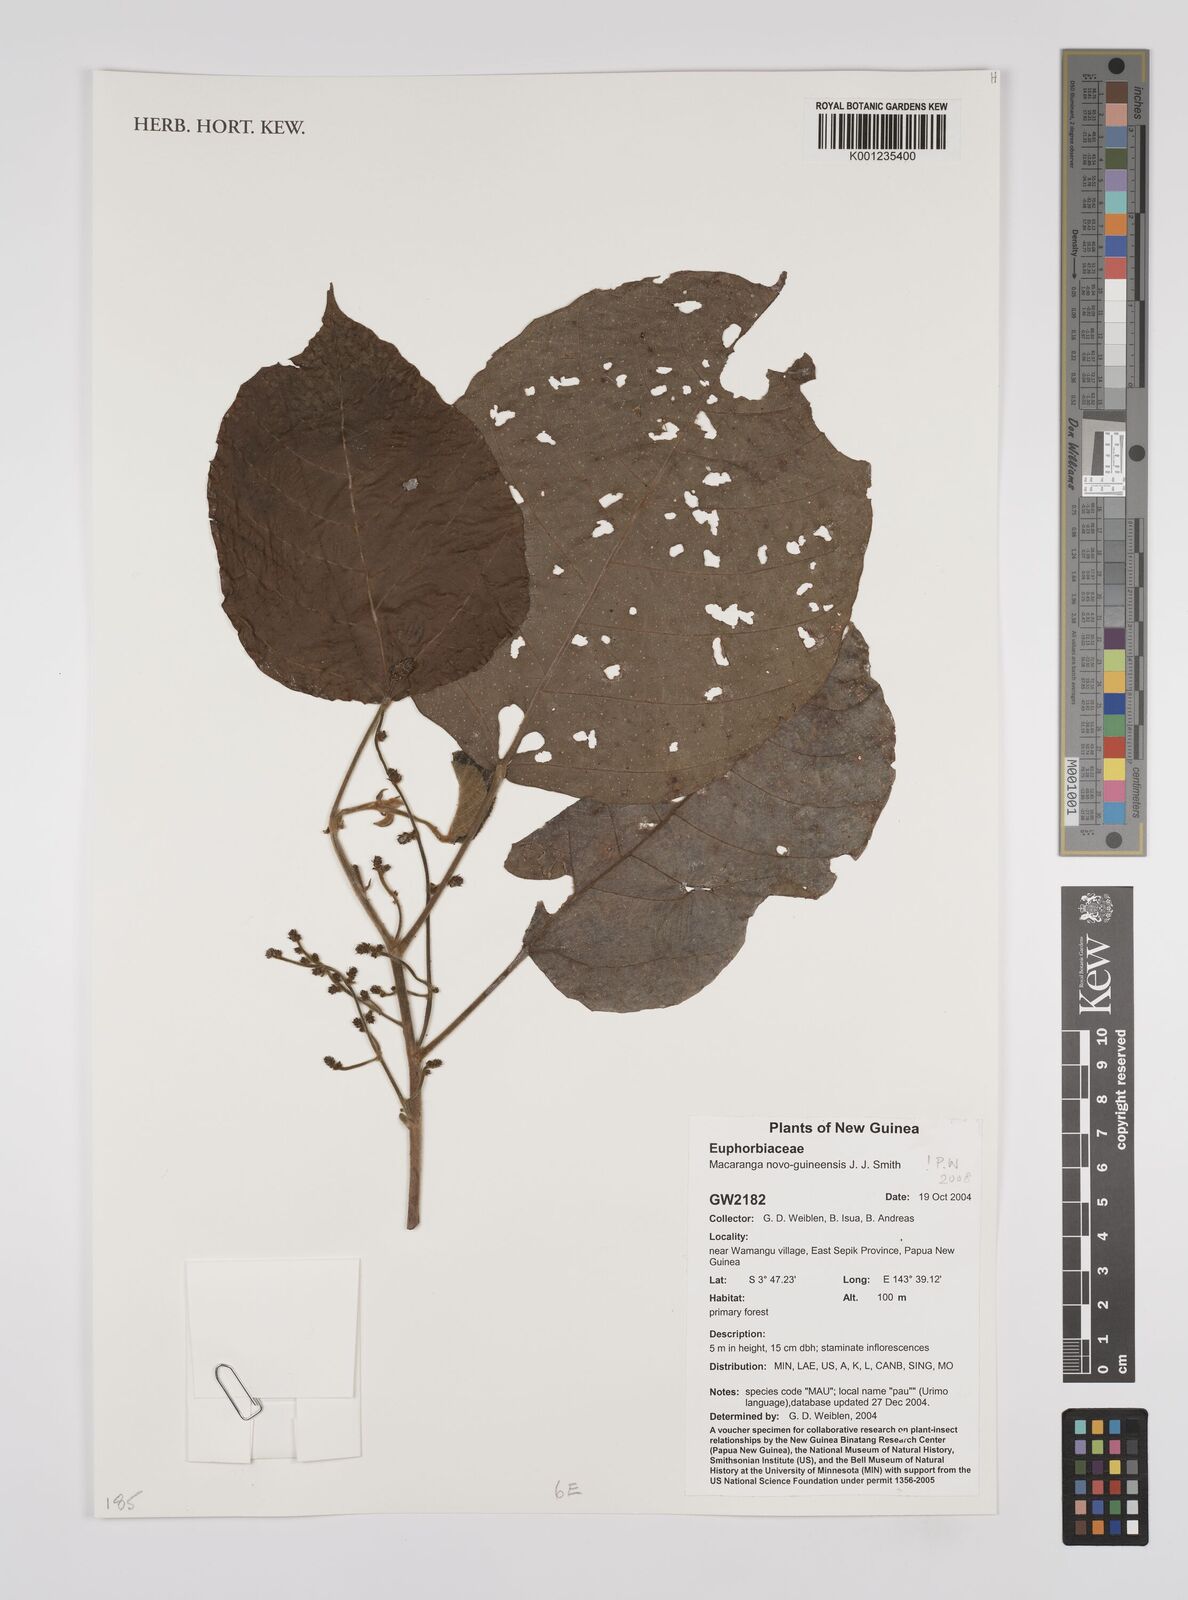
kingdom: Plantae
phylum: Tracheophyta
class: Magnoliopsida
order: Malpighiales
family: Euphorbiaceae
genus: Macaranga
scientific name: Macaranga novoguineensis
